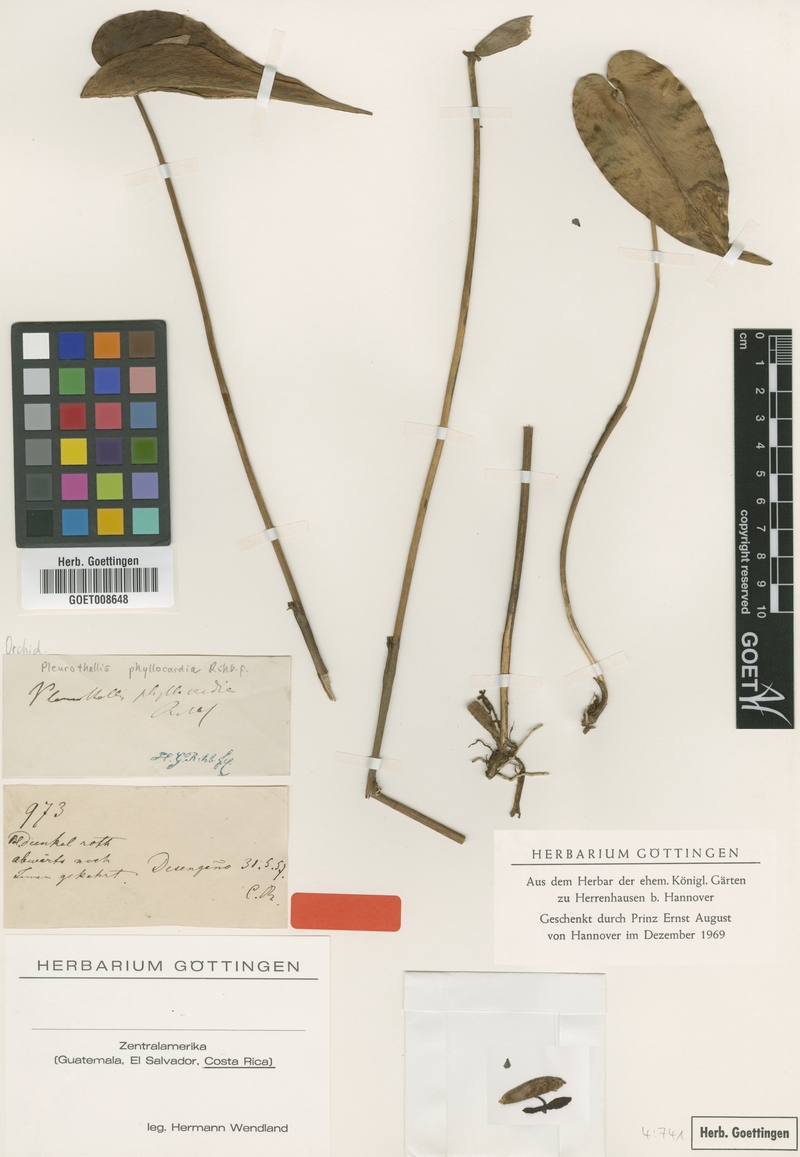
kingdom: Plantae
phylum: Tracheophyta
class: Liliopsida
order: Asparagales
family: Orchidaceae
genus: Pleurothallis
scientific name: Pleurothallis phyllocardia
